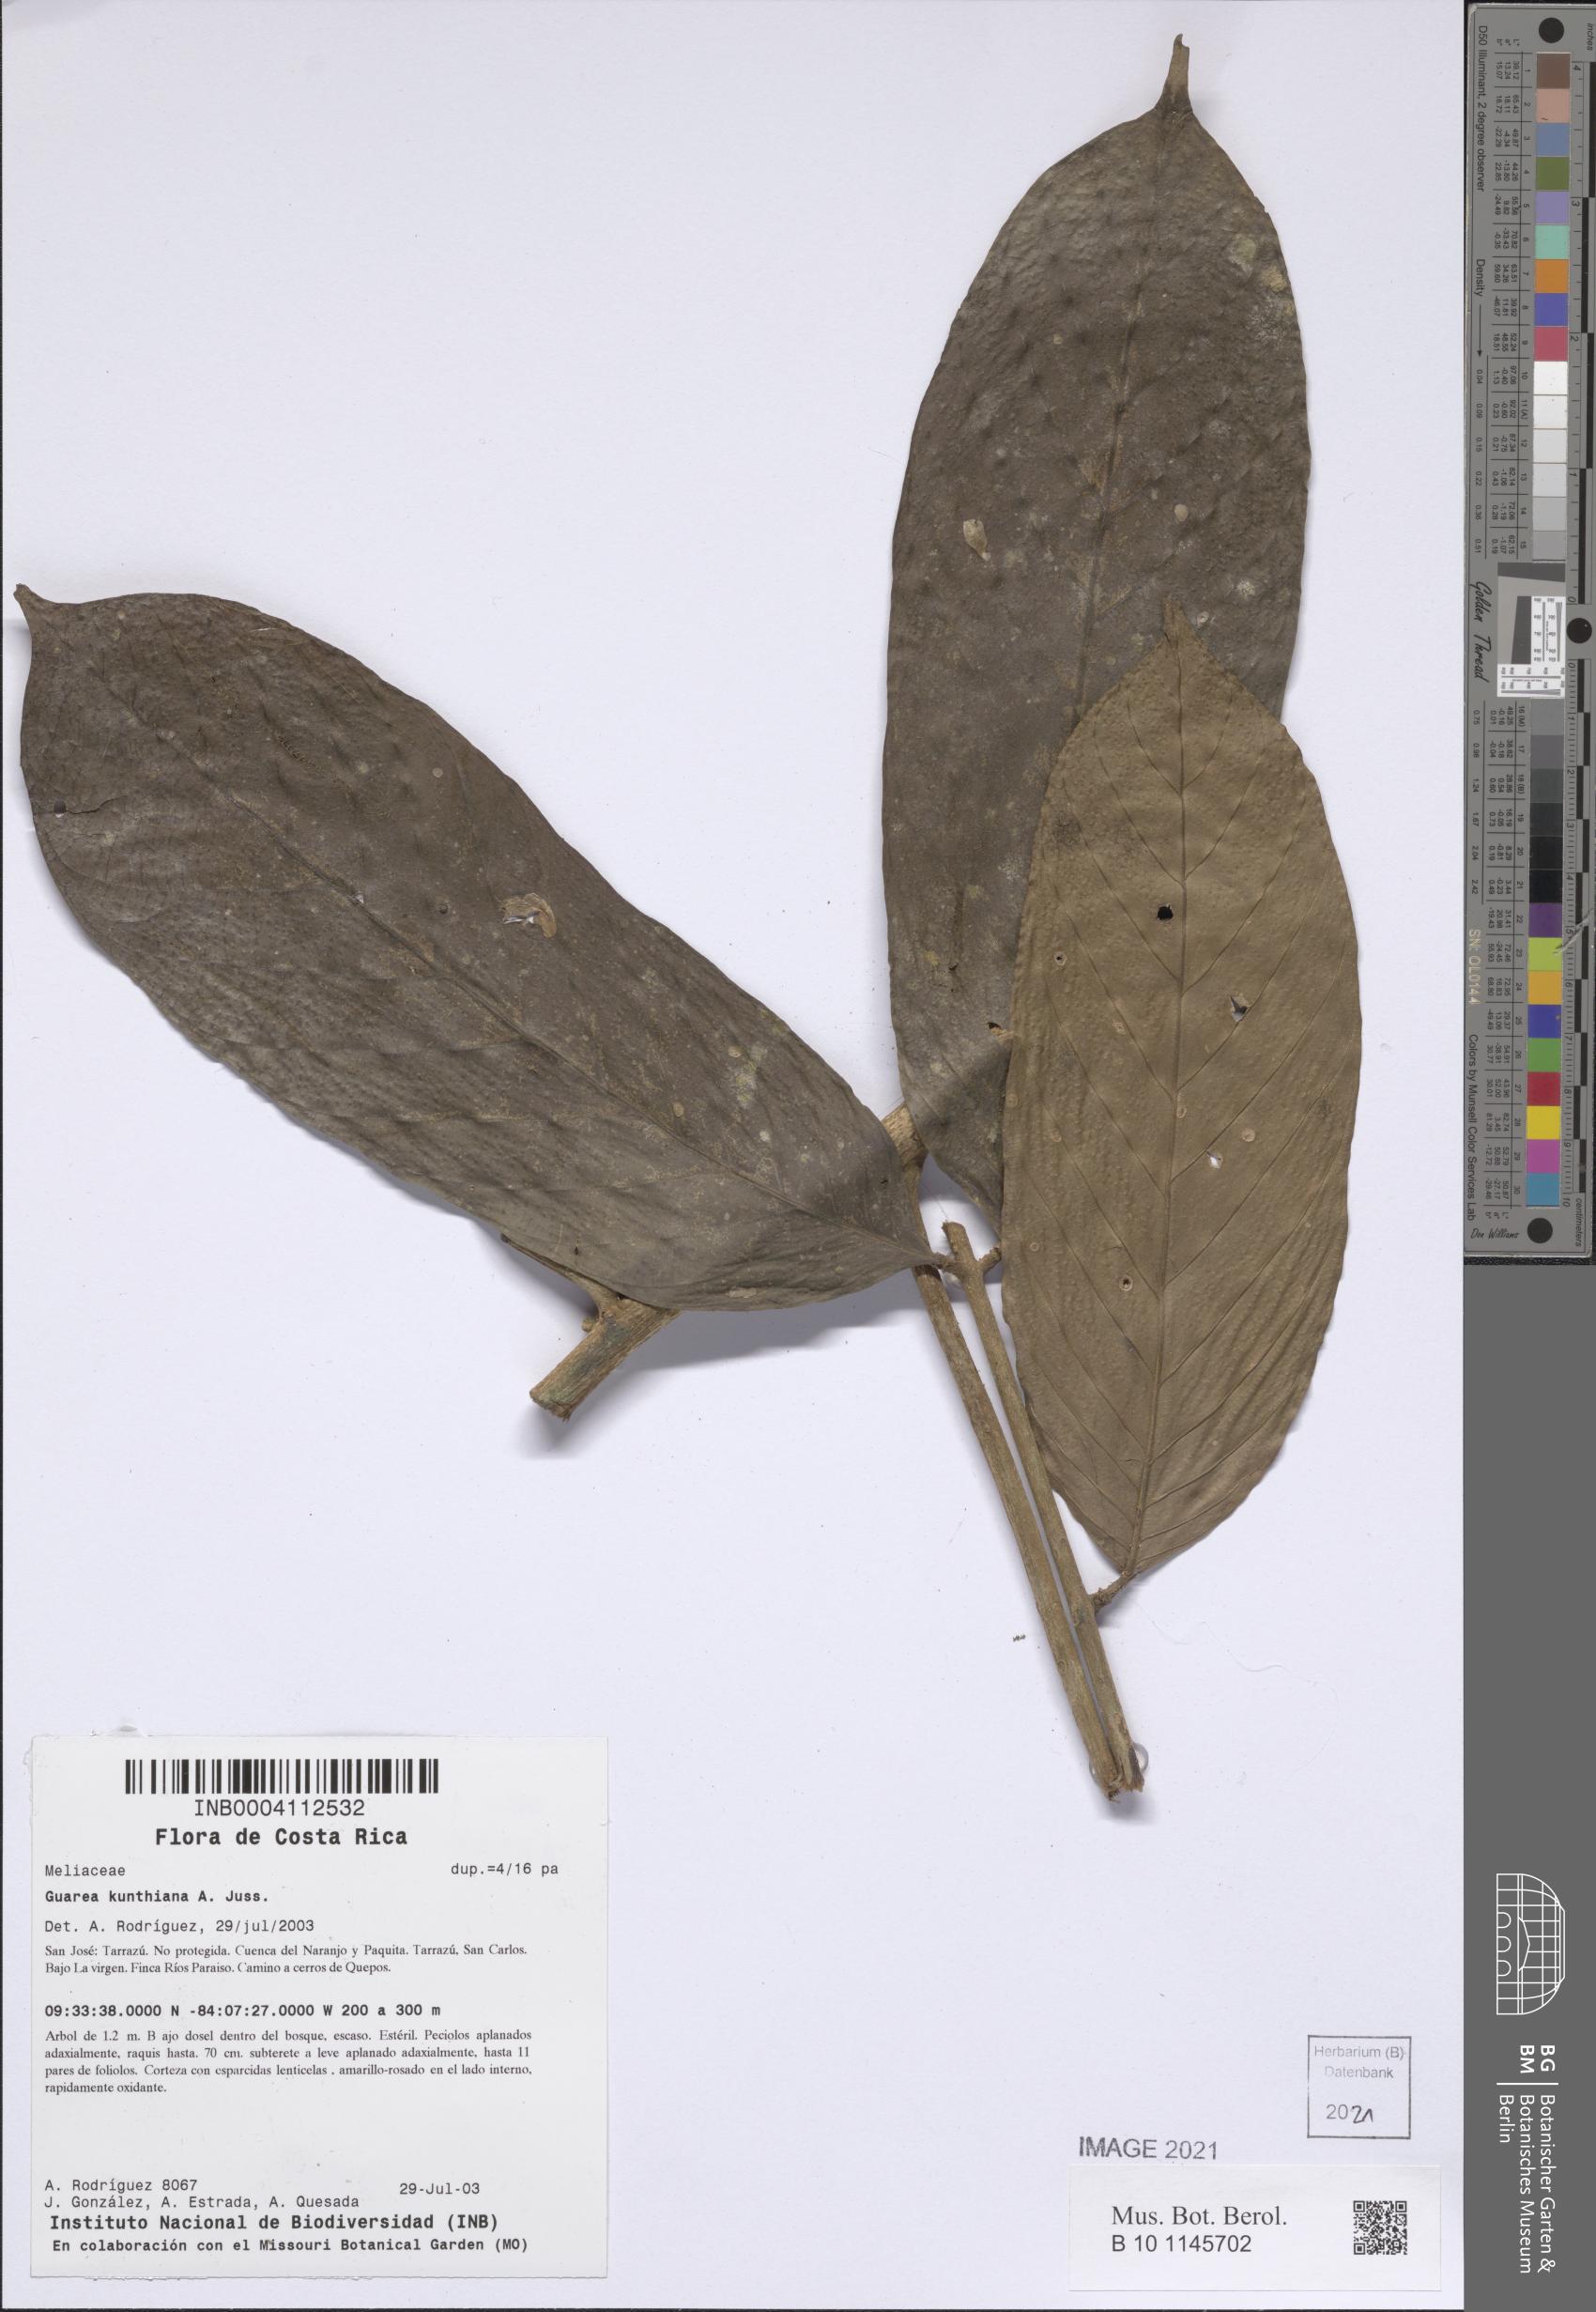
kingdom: Plantae
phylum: Tracheophyta
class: Magnoliopsida
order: Sapindales
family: Meliaceae
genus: Guarea
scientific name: Guarea kunthiana
